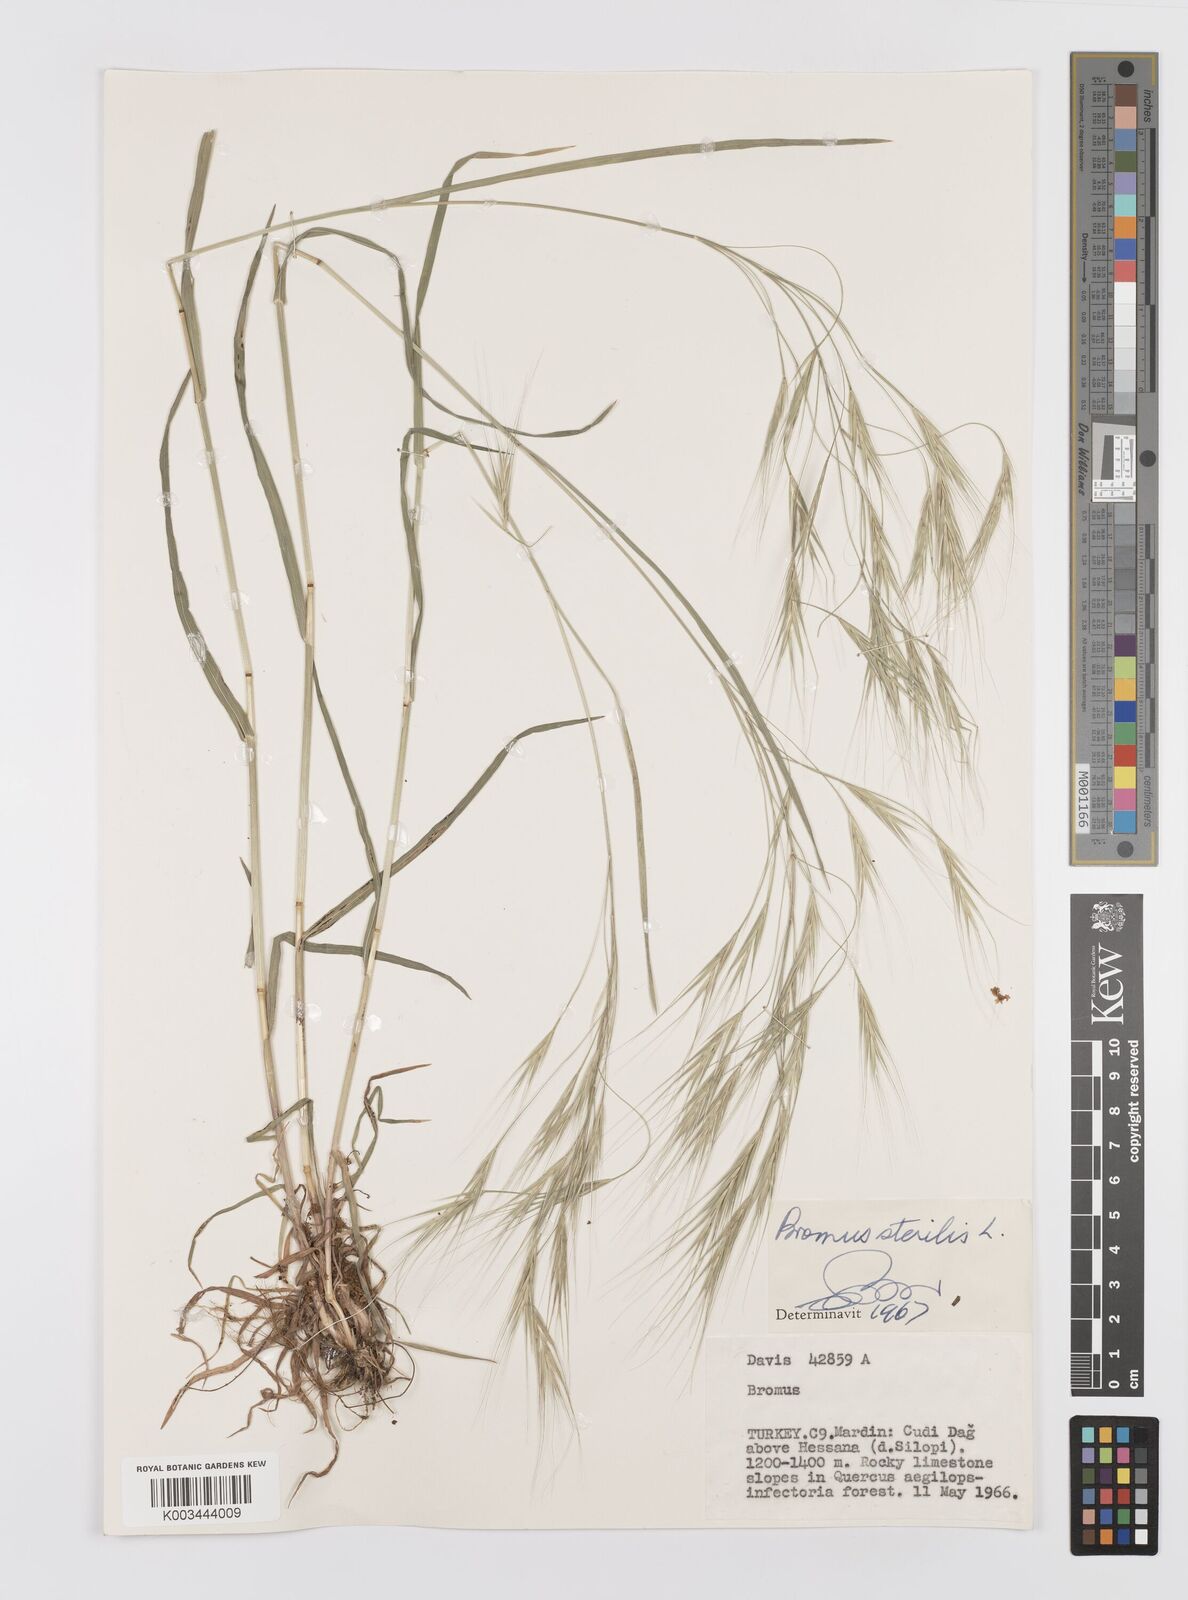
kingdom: Plantae
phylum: Tracheophyta
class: Liliopsida
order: Poales
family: Poaceae
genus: Bromus
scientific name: Bromus sterilis
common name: Poverty brome
